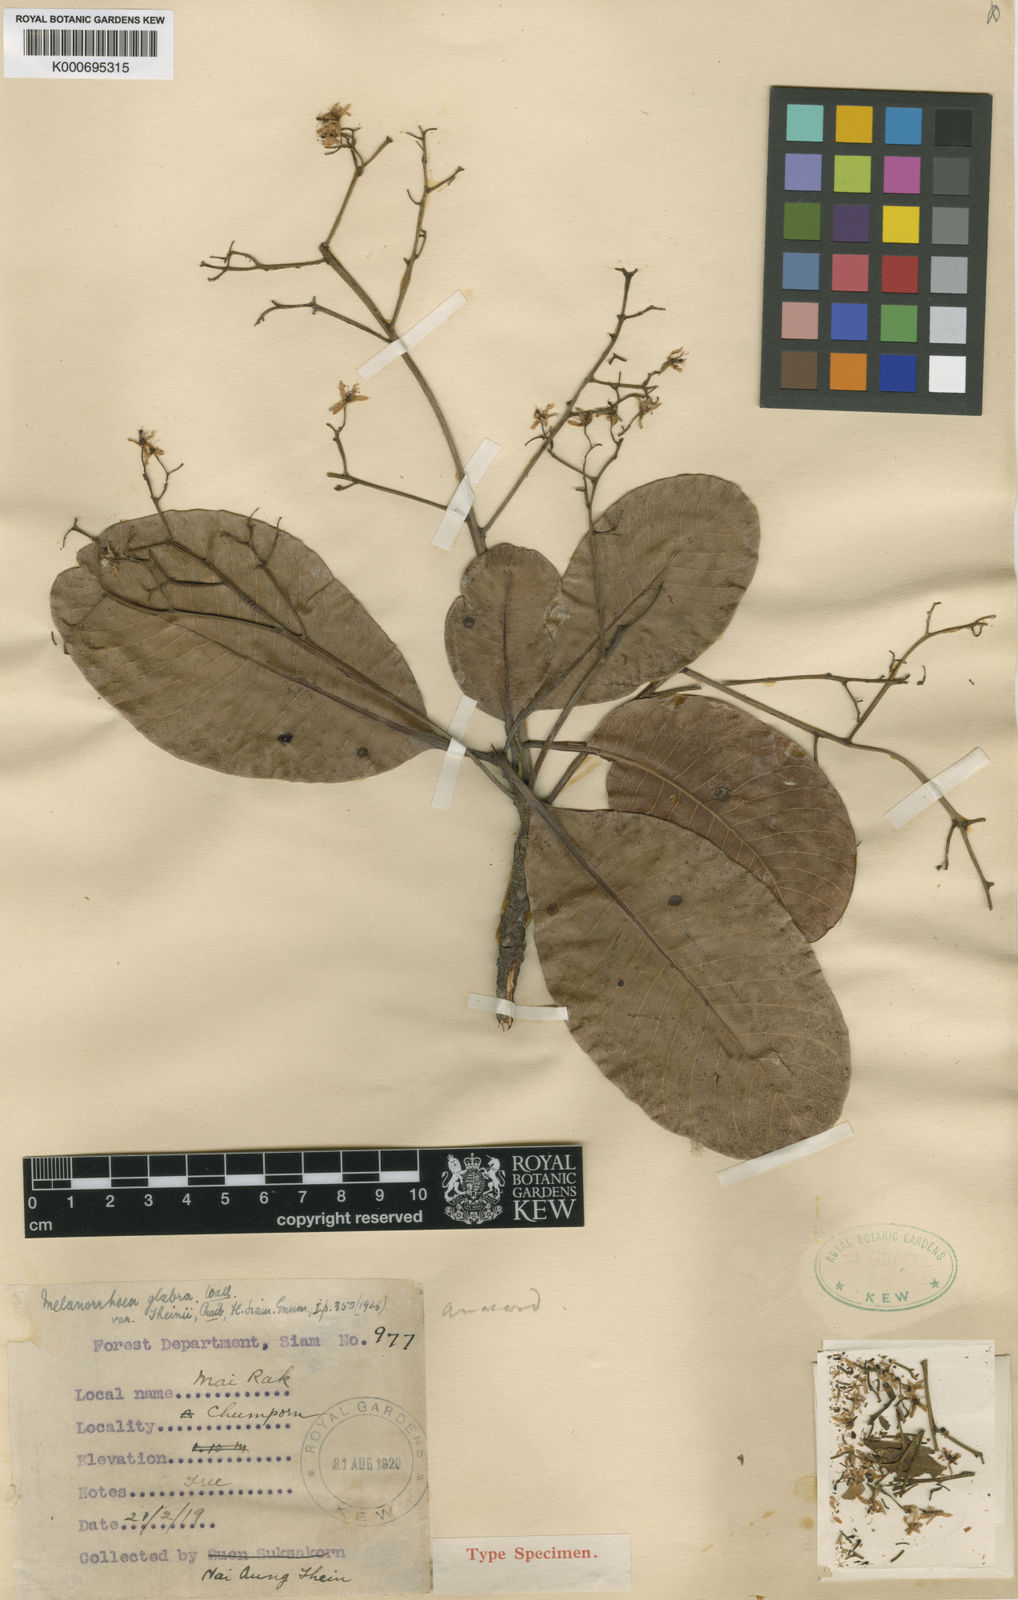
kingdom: Plantae
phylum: Tracheophyta
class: Magnoliopsida
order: Sapindales
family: Anacardiaceae
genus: Gluta
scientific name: Gluta glabra
